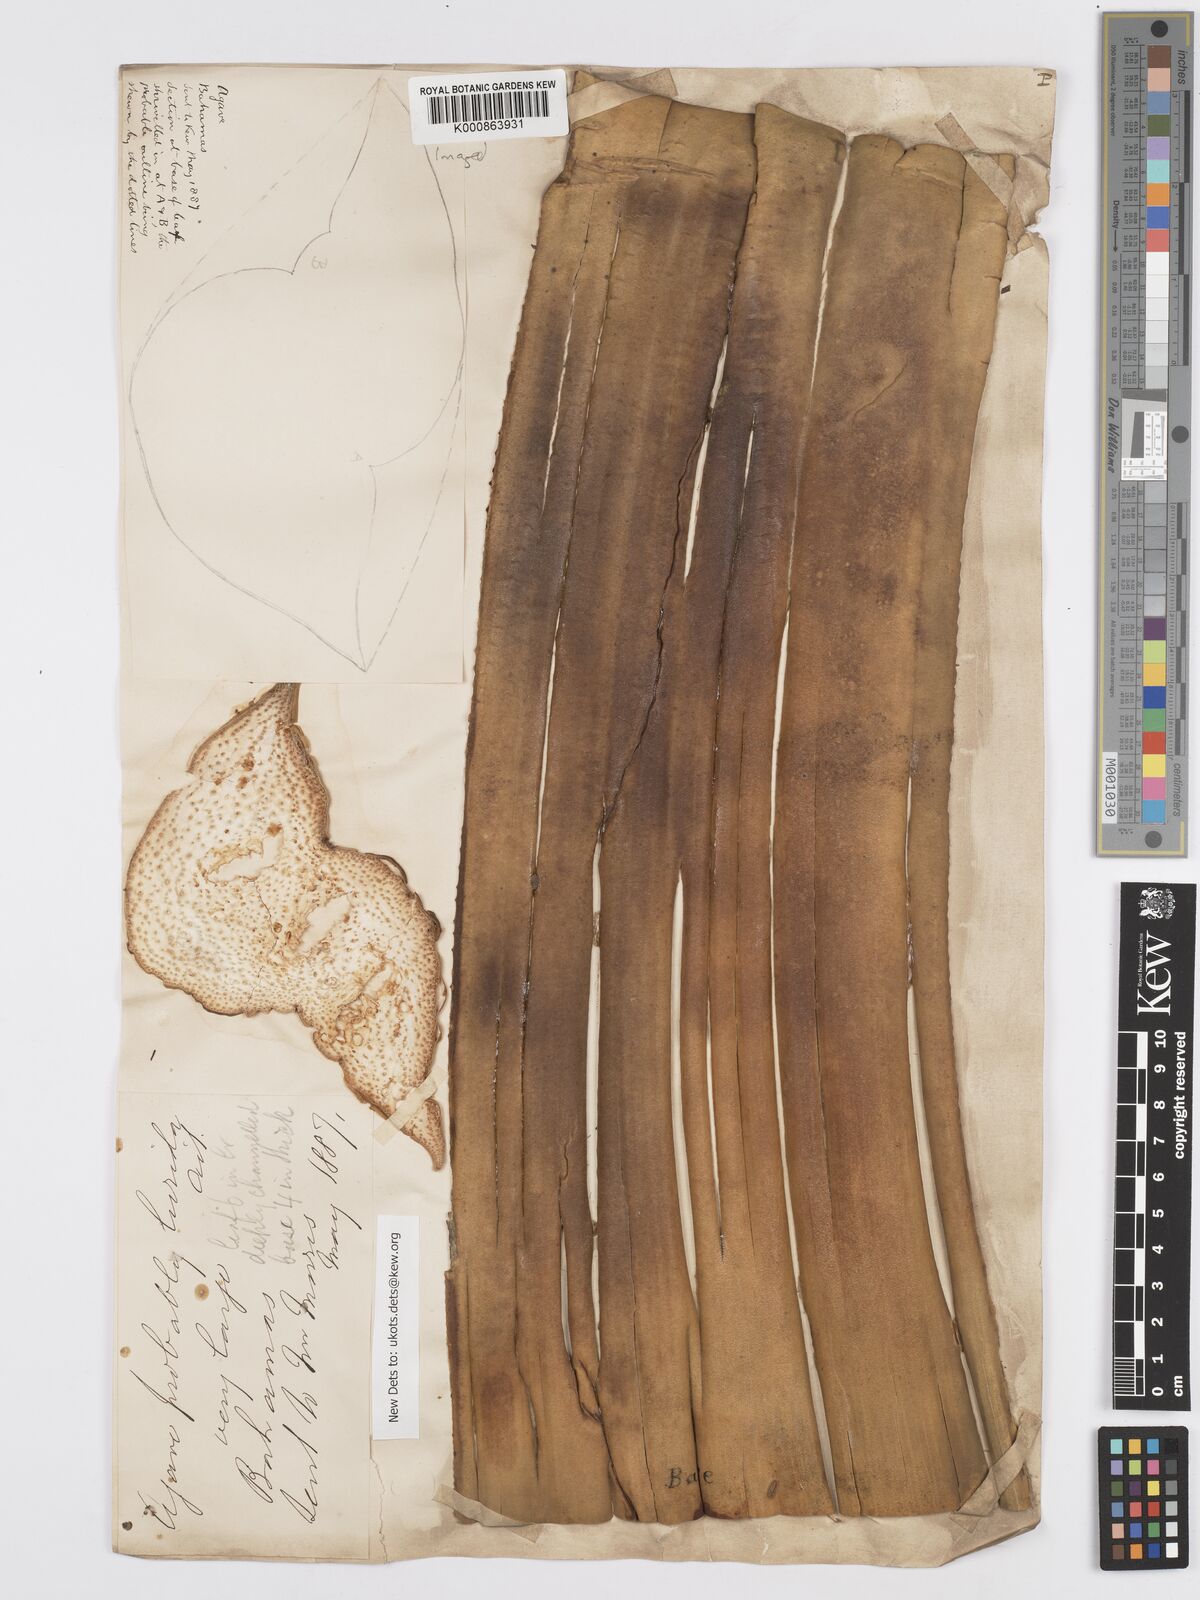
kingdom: Plantae
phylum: Tracheophyta
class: Liliopsida
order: Asparagales
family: Asparagaceae
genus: Agave
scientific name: Agave bahamana
